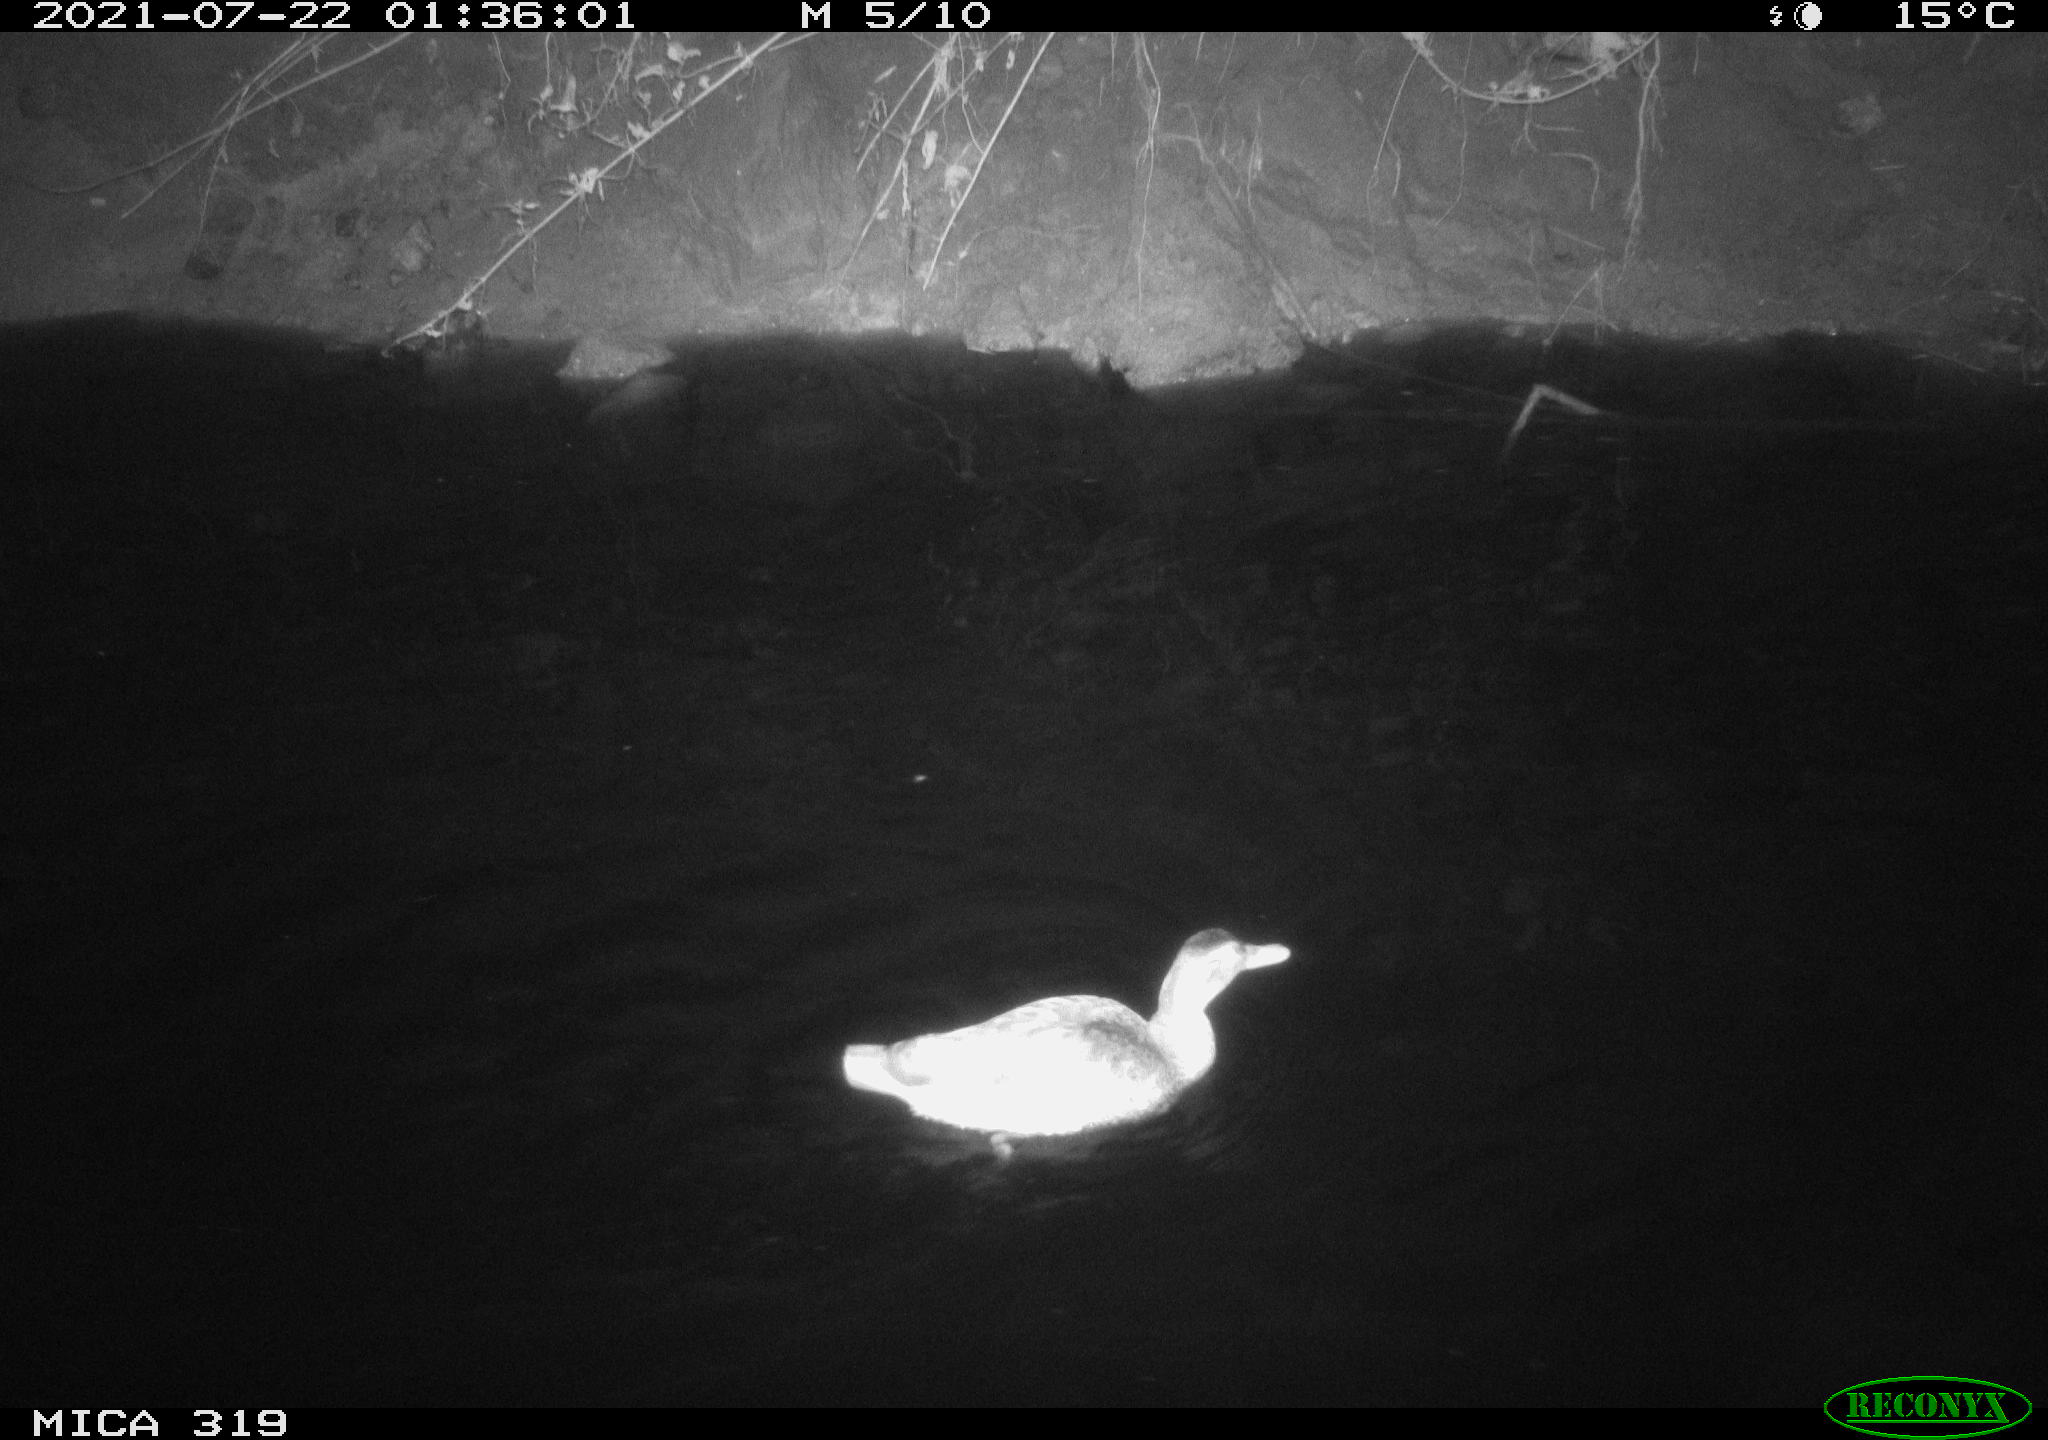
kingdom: Animalia
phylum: Chordata
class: Aves
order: Anseriformes
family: Anatidae
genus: Anas
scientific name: Anas platyrhynchos
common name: Mallard
